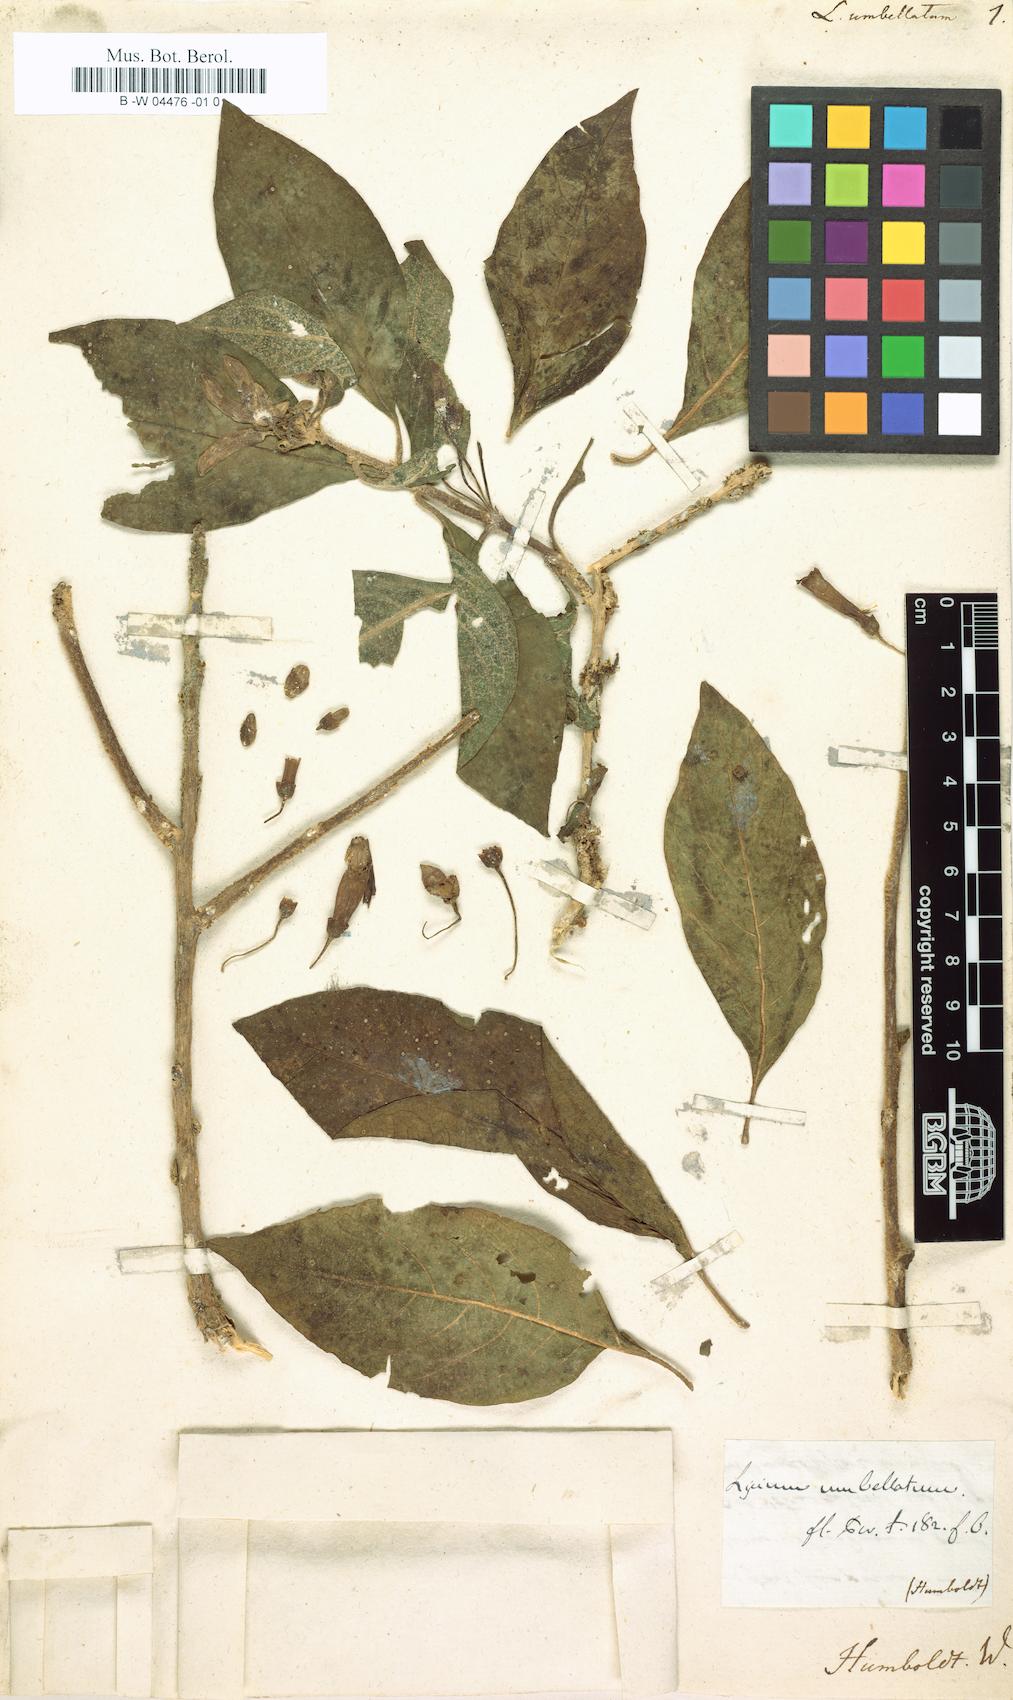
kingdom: Plantae
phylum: Tracheophyta
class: Magnoliopsida
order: Solanales
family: Solanaceae
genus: Trozelia
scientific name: Trozelia umbellata
